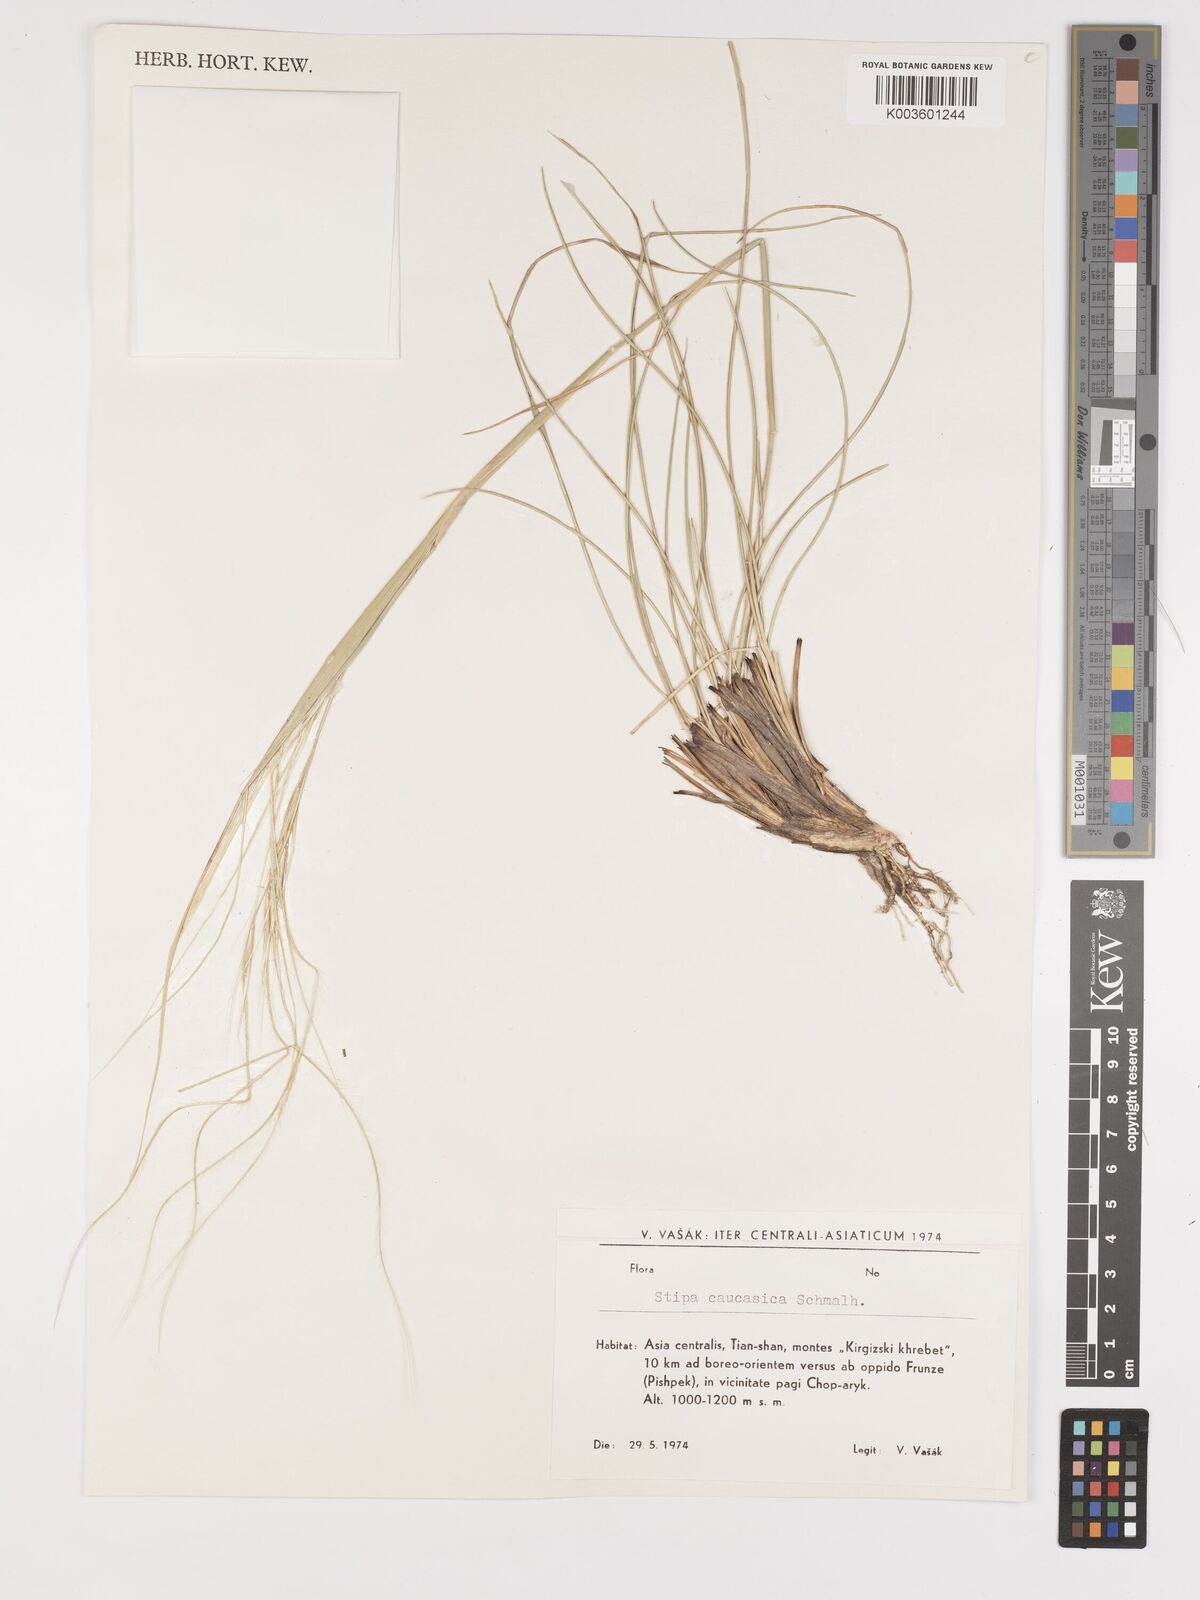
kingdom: Plantae
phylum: Tracheophyta
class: Liliopsida
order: Poales
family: Poaceae
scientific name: Poaceae
